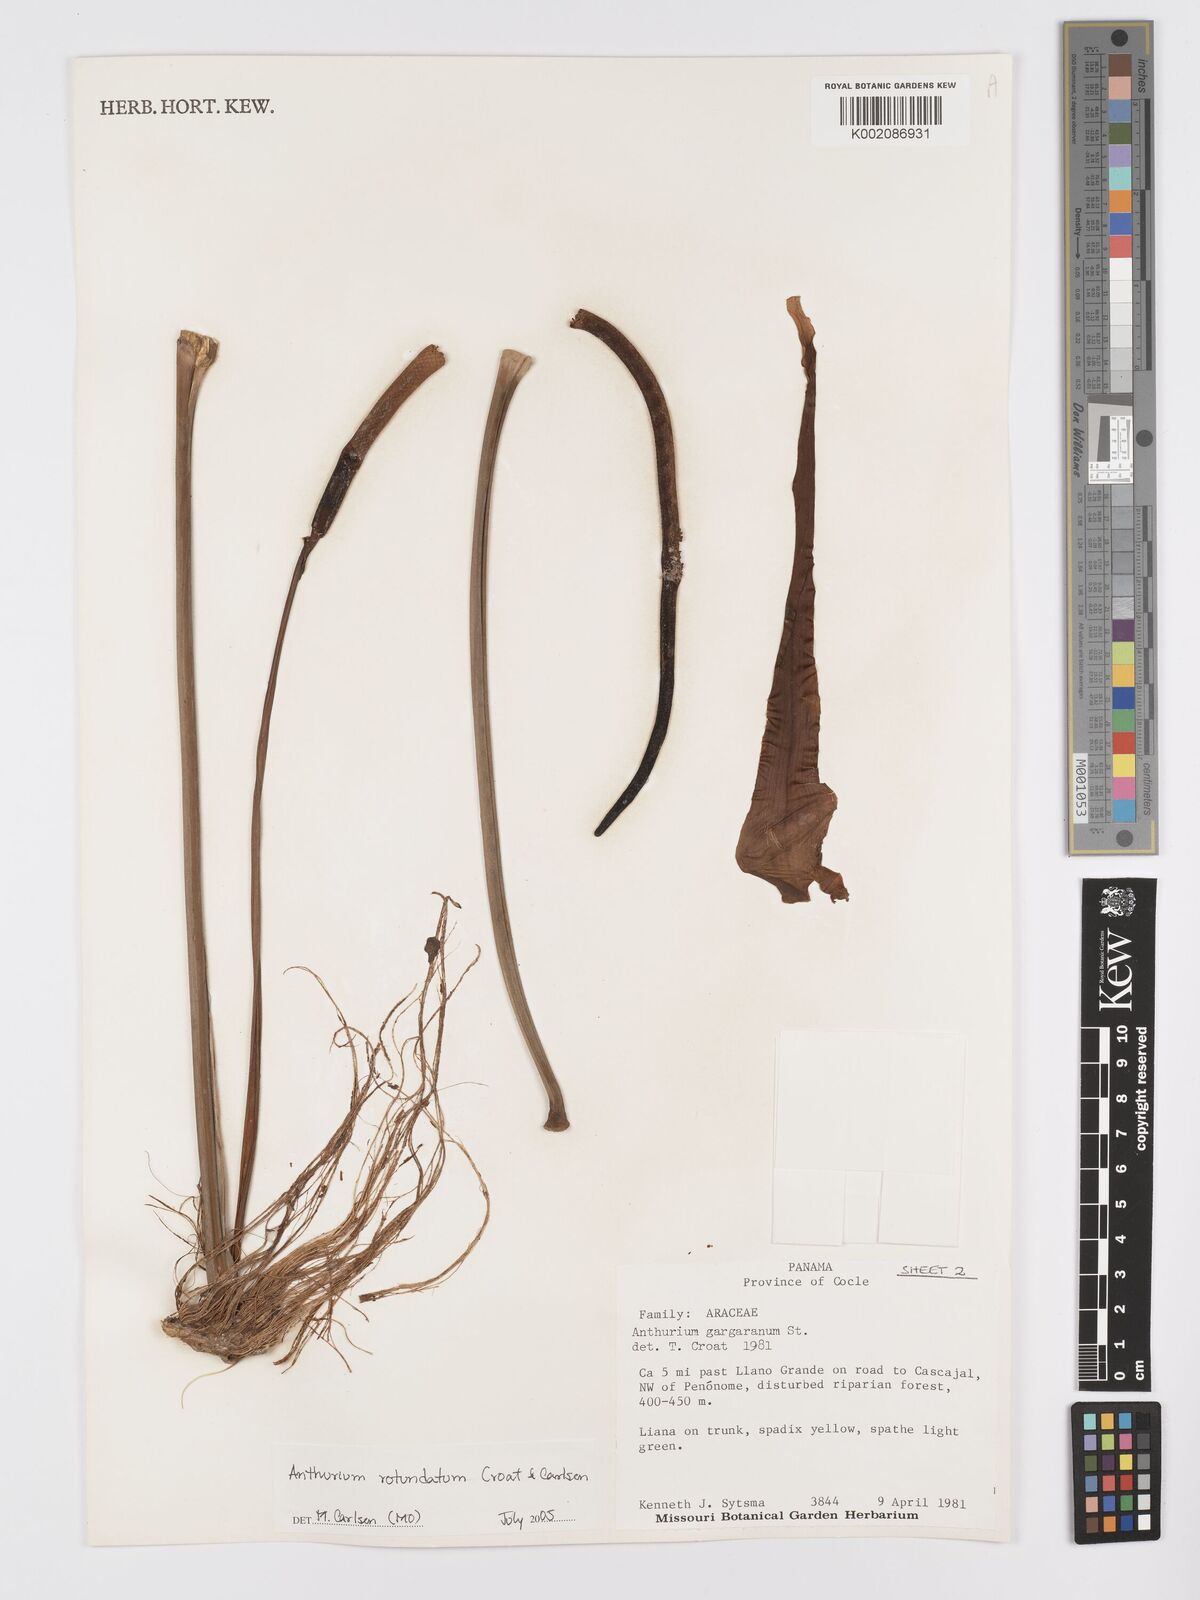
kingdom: Plantae
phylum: Tracheophyta
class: Liliopsida
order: Alismatales
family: Araceae
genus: Anthurium
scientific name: Anthurium rotundatum
